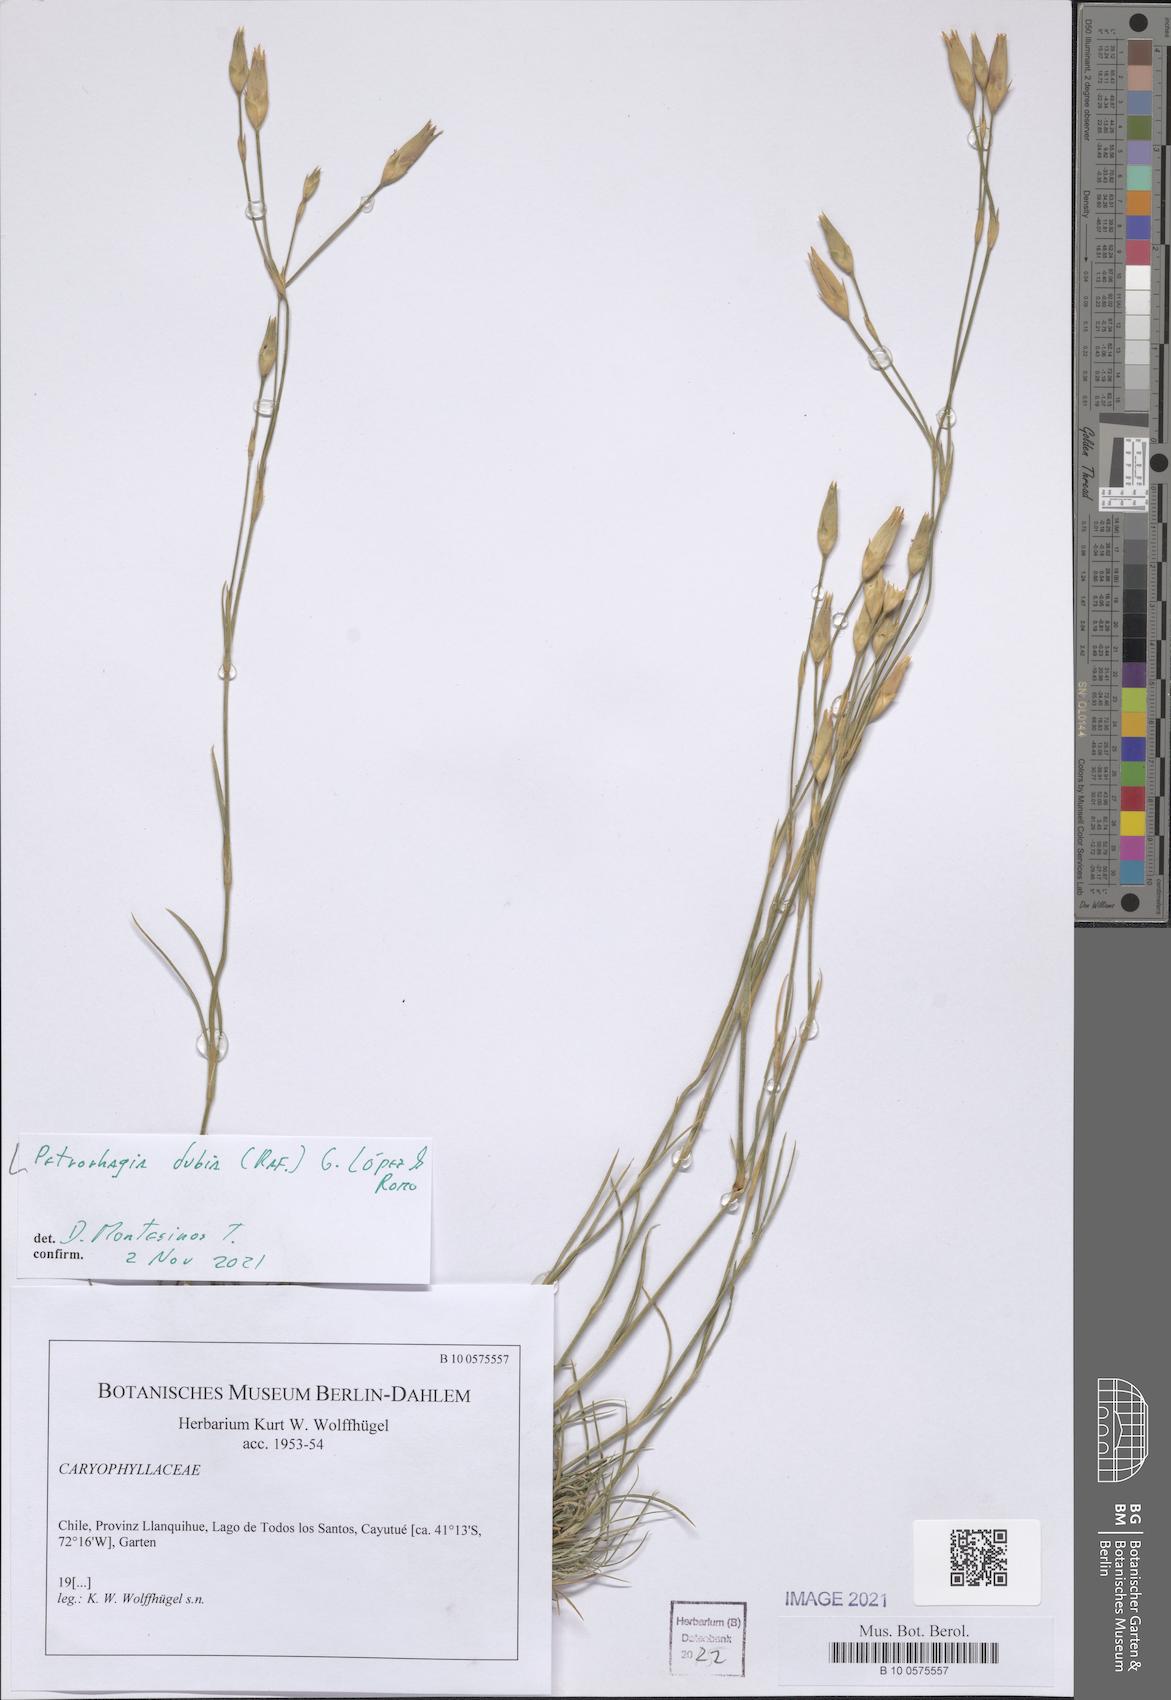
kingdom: Plantae
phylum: Tracheophyta
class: Magnoliopsida
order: Caryophyllales
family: Caryophyllaceae
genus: Petrorhagia
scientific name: Petrorhagia dubia
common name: Hairypink
